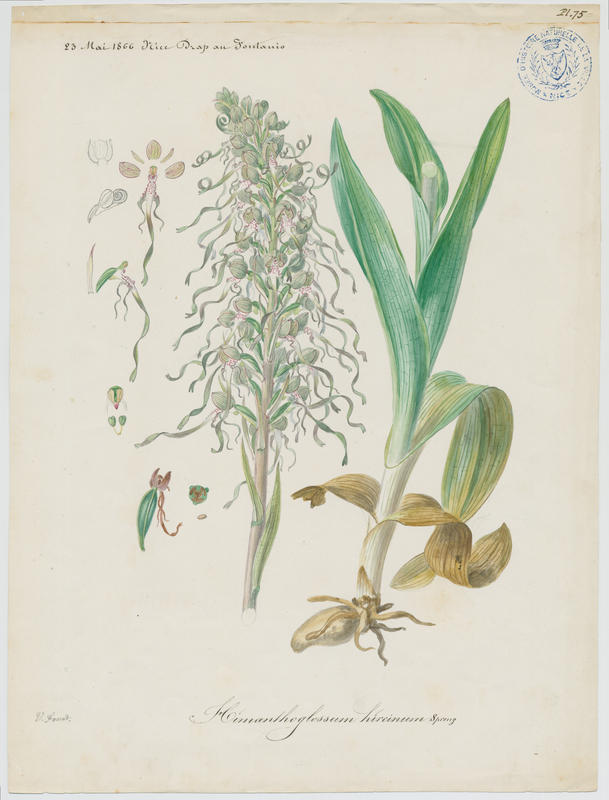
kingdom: Plantae
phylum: Tracheophyta
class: Liliopsida
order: Asparagales
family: Orchidaceae
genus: Himantoglossum
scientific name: Himantoglossum hircinum
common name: Lizard orchid
